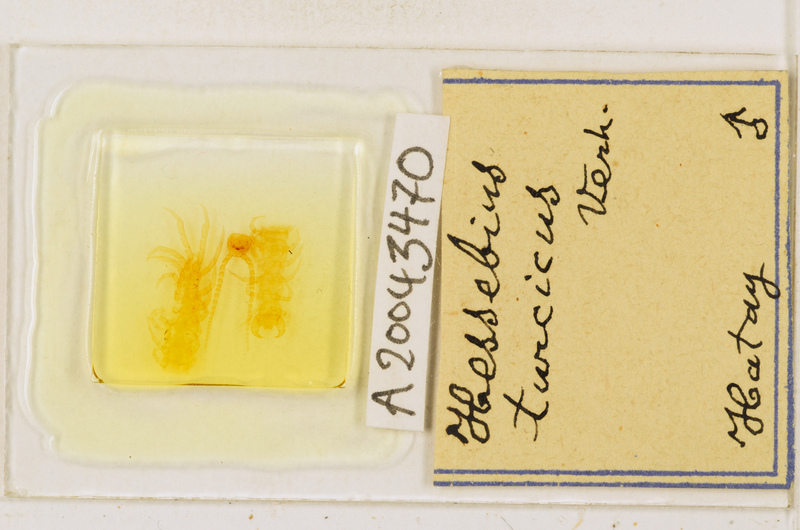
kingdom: Animalia
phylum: Arthropoda
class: Chilopoda
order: Lithobiomorpha
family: Lithobiidae
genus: Hessebius
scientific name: Hessebius
